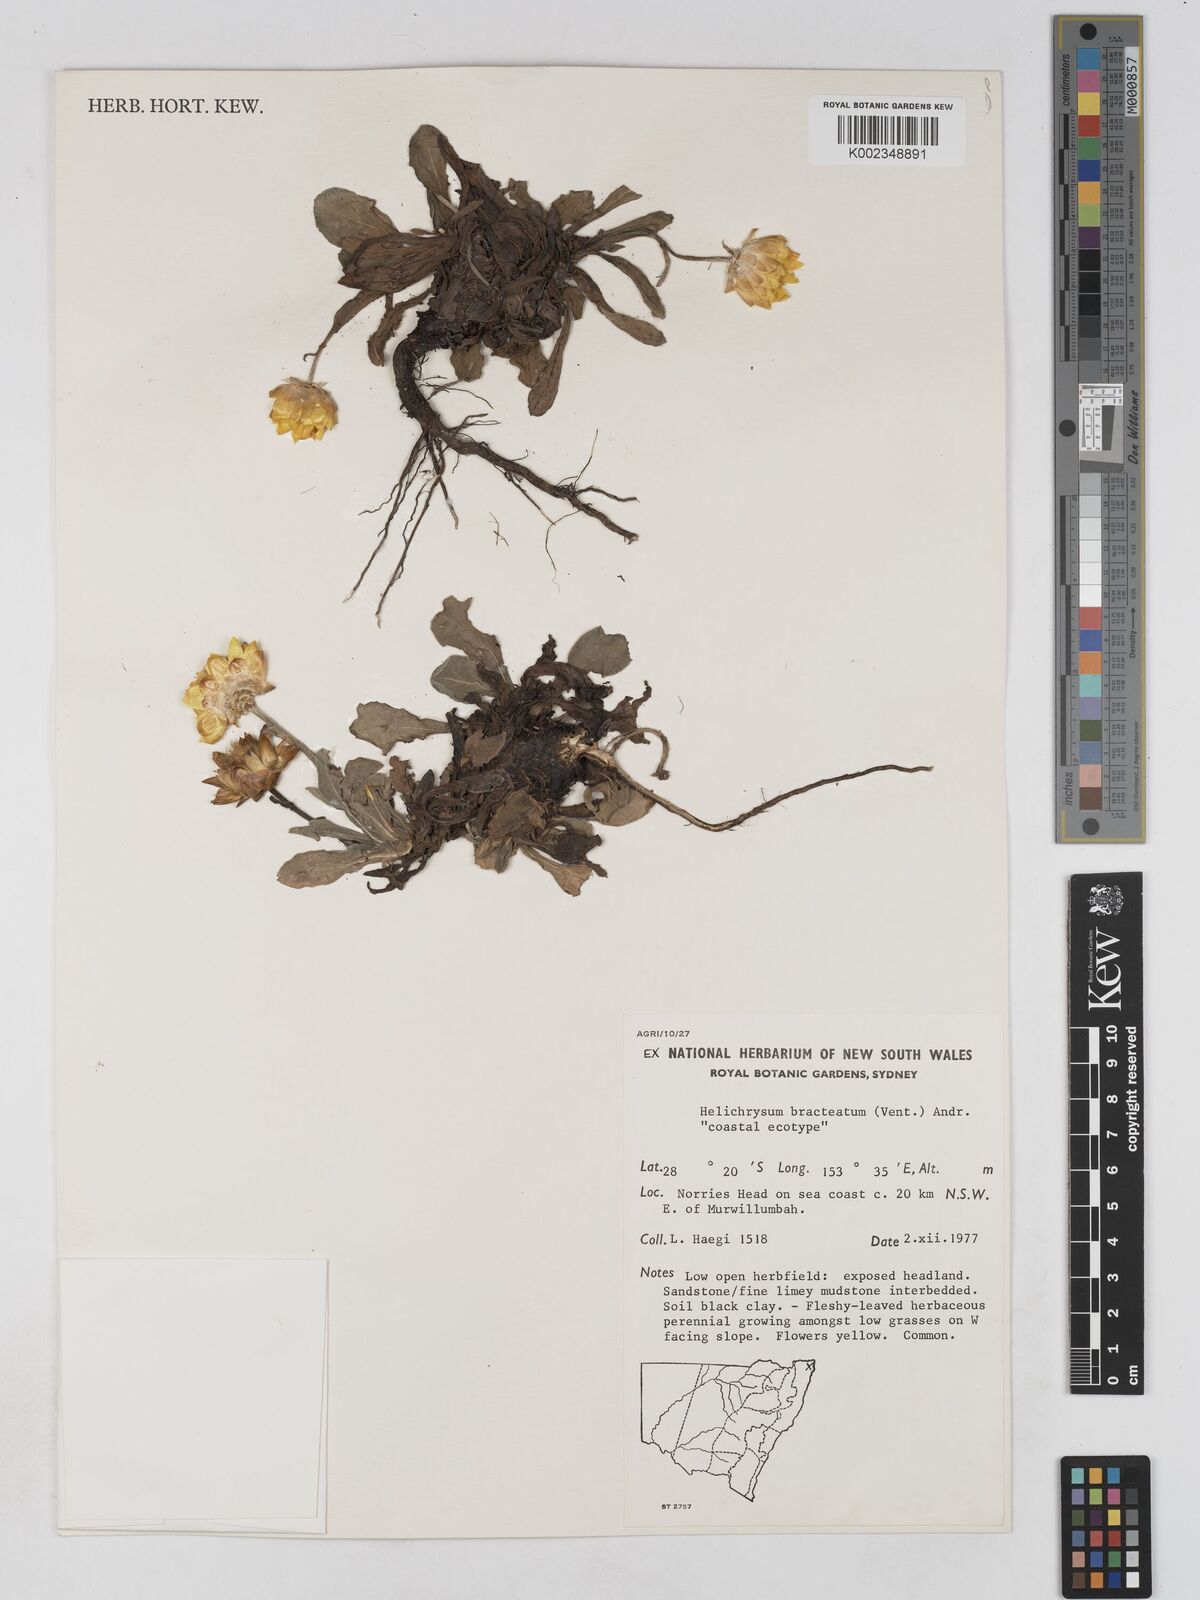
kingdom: Plantae
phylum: Tracheophyta
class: Magnoliopsida
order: Asterales
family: Asteraceae
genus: Xerochrysum
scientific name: Xerochrysum bracteatum
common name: Bracted strawflower
